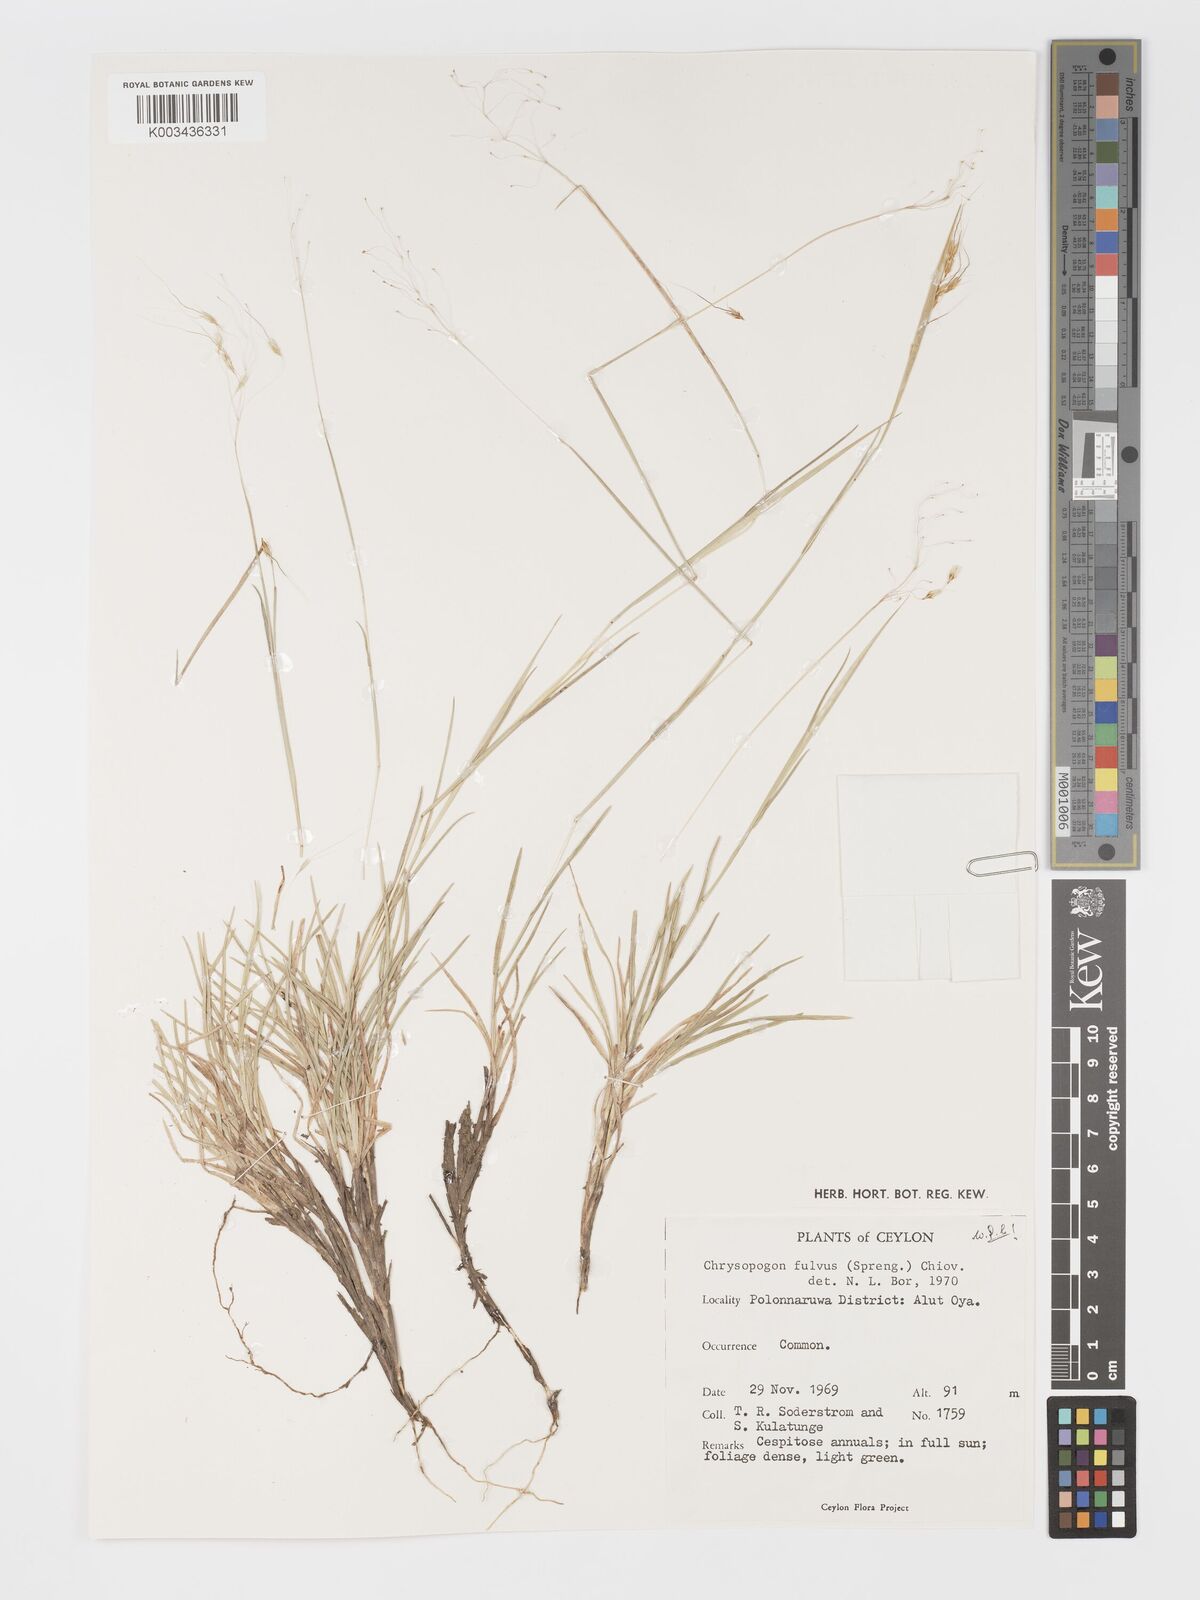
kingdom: Plantae
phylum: Tracheophyta
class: Liliopsida
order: Poales
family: Poaceae
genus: Chrysopogon
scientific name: Chrysopogon fulvus
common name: Red false beardgrass
